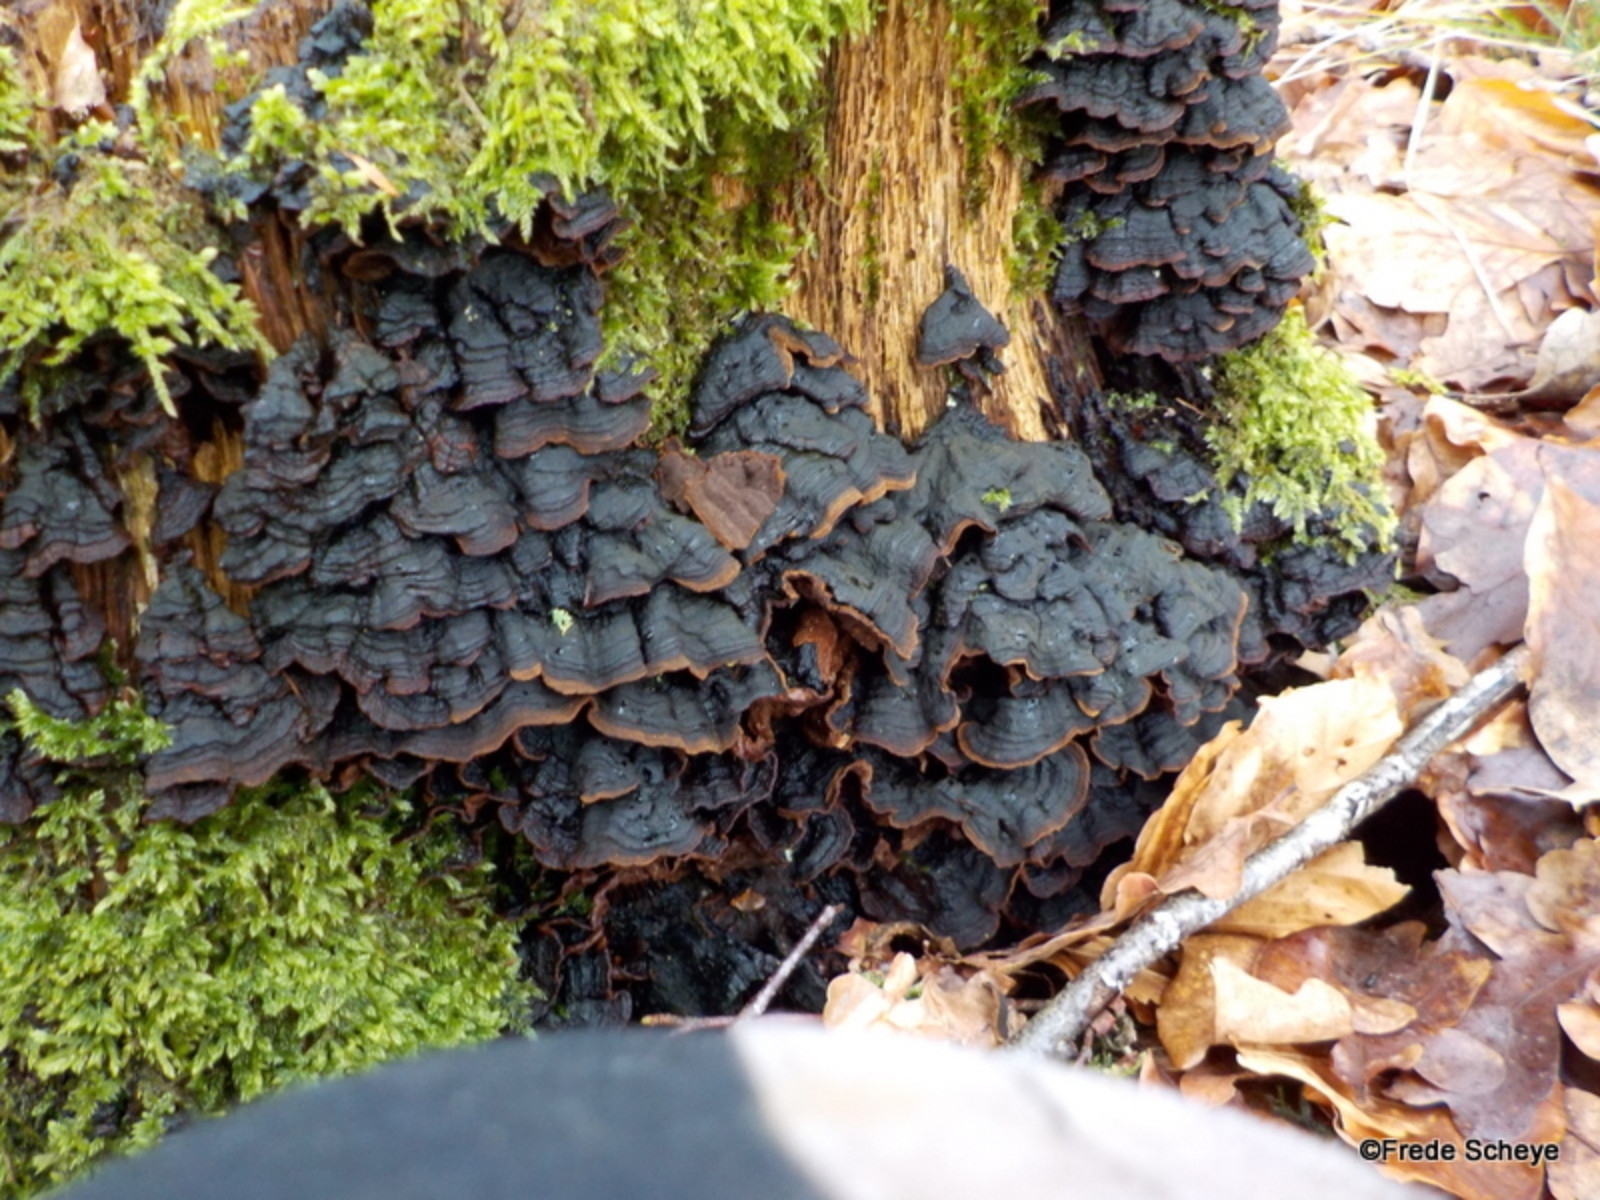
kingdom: Fungi
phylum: Basidiomycota
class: Agaricomycetes
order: Hymenochaetales
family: Hymenochaetaceae
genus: Hymenochaete
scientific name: Hymenochaete rubiginosa
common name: stiv ruslædersvamp
